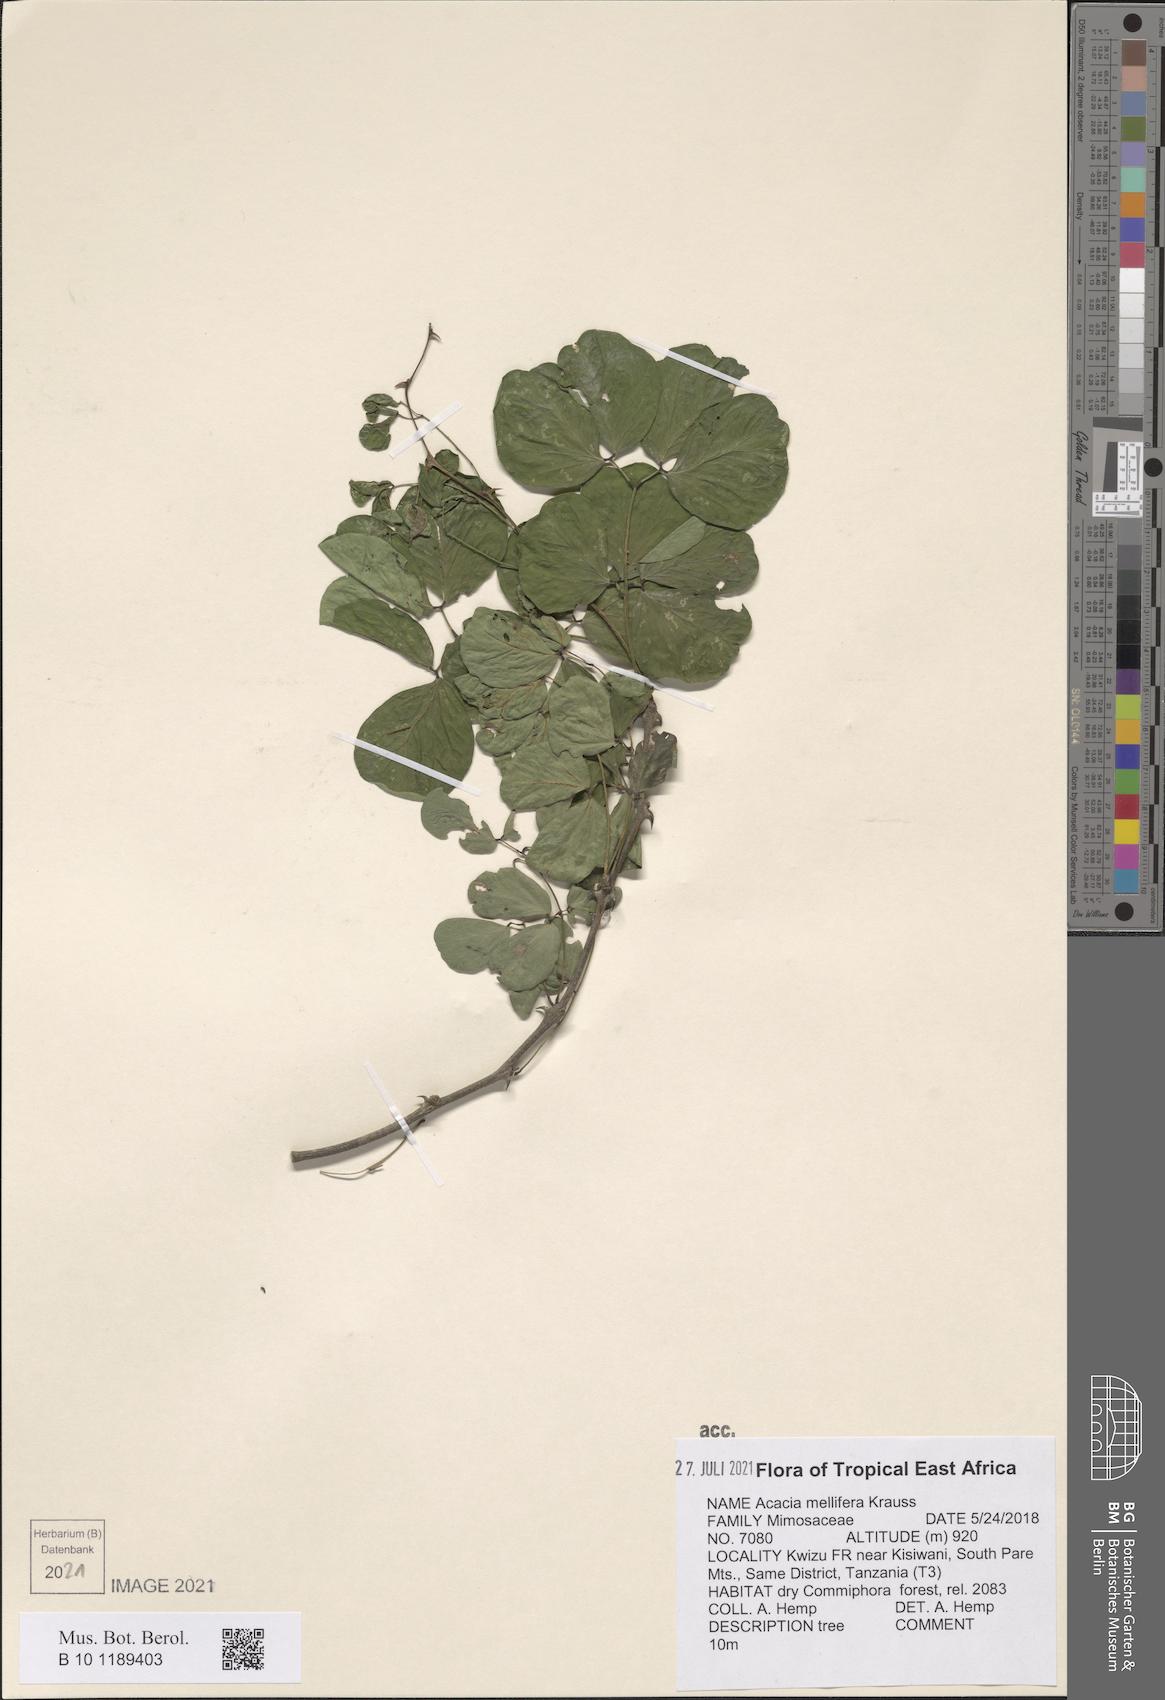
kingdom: Plantae
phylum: Tracheophyta
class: Magnoliopsida
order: Fabales
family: Fabaceae
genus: Senegalia
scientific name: Senegalia mellifera
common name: Hookthorn
